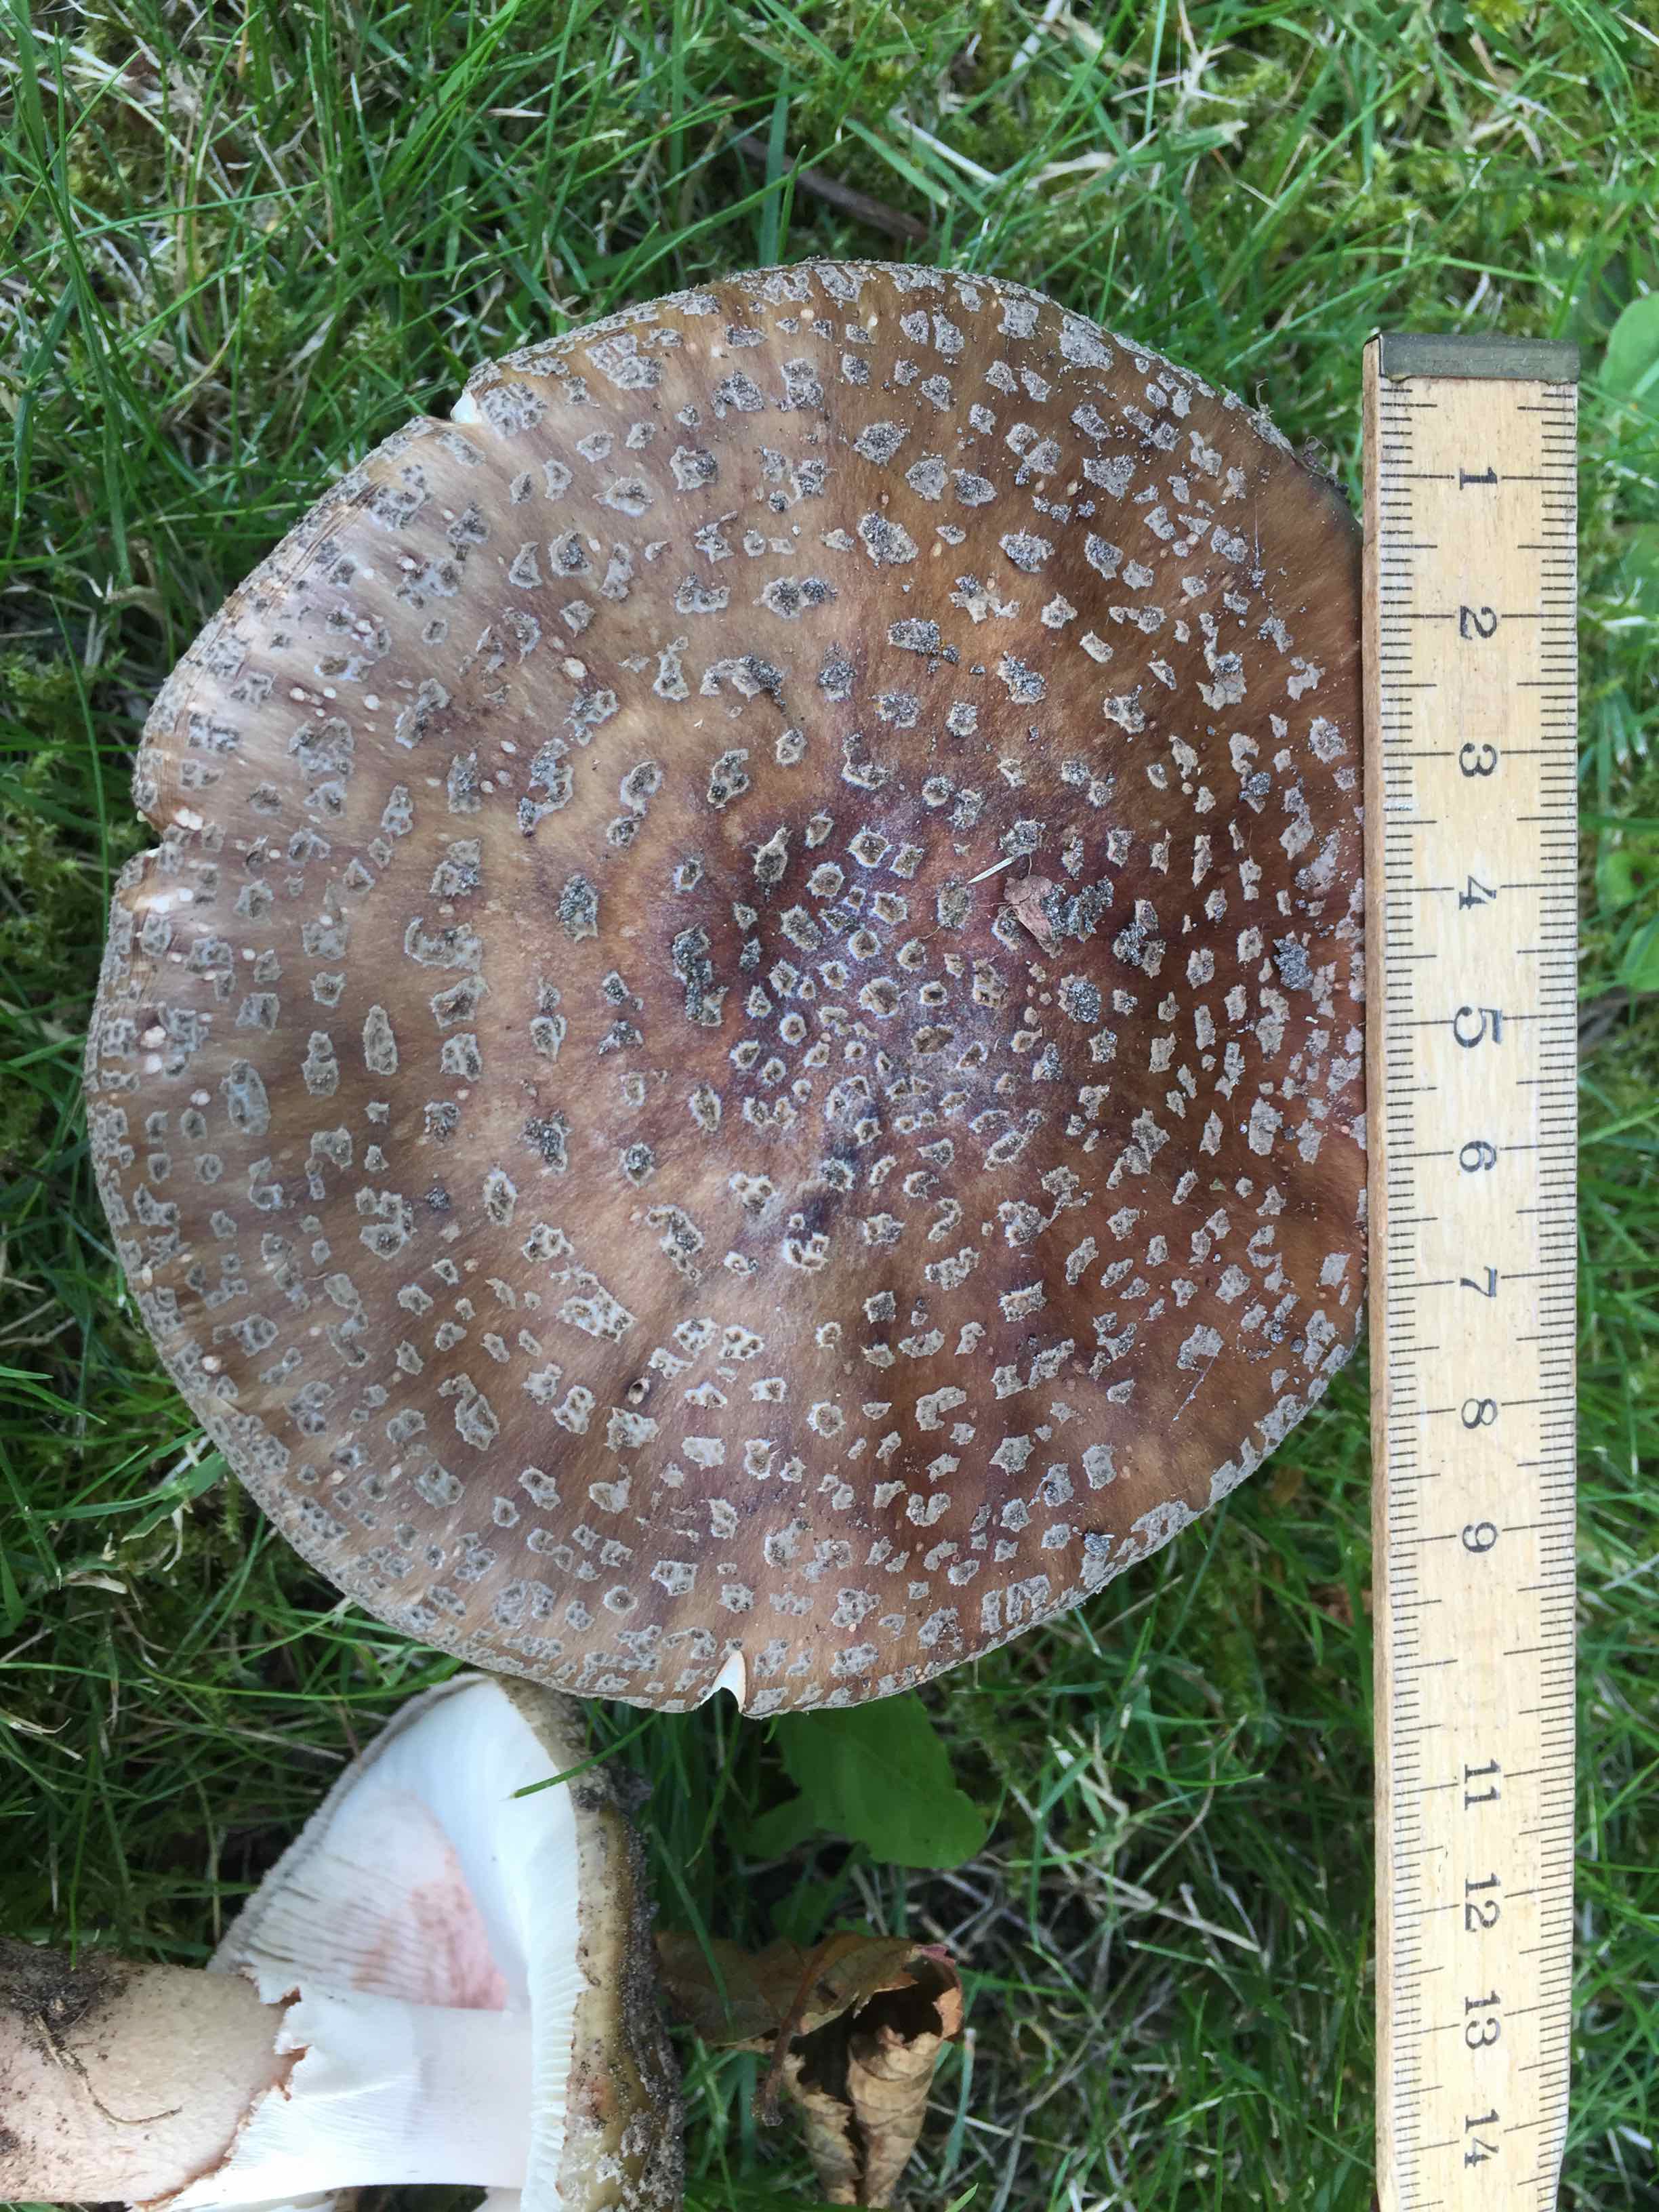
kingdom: Fungi
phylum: Basidiomycota
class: Agaricomycetes
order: Agaricales
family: Amanitaceae
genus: Amanita
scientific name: Amanita rubescens
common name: rødmende fluesvamp
